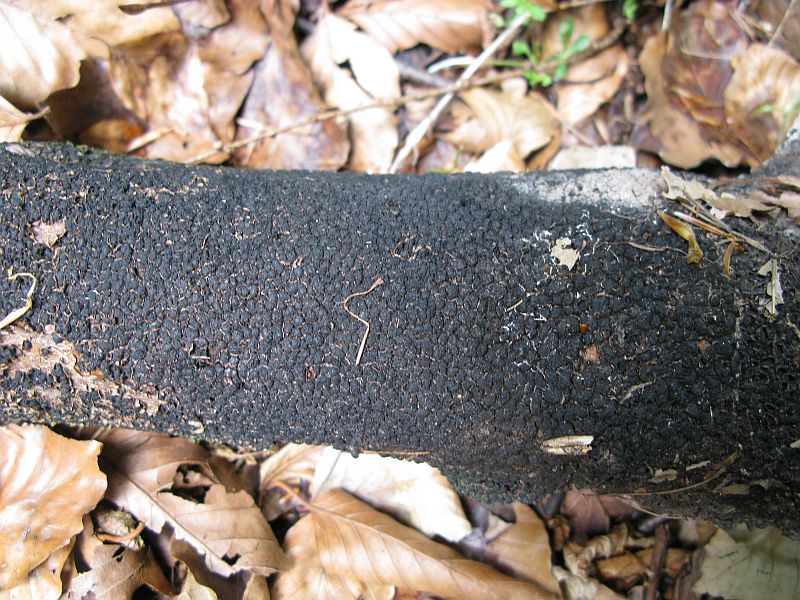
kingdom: Fungi
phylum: Ascomycota
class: Sordariomycetes
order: Xylariales
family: Melogrammataceae
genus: Melogramma
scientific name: Melogramma spiniferum
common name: bøgefod-kulhals
